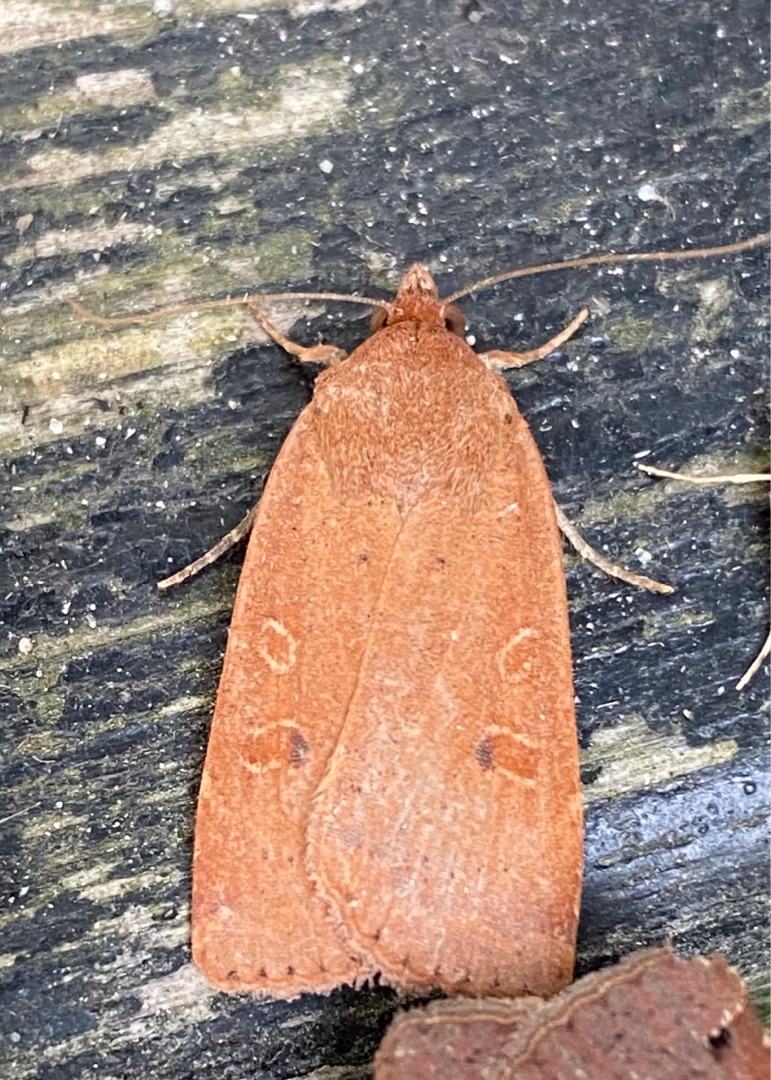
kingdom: Animalia
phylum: Arthropoda
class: Insecta
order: Lepidoptera
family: Noctuidae
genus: Noctua
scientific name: Noctua comes
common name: Svagtskygget smutugle
